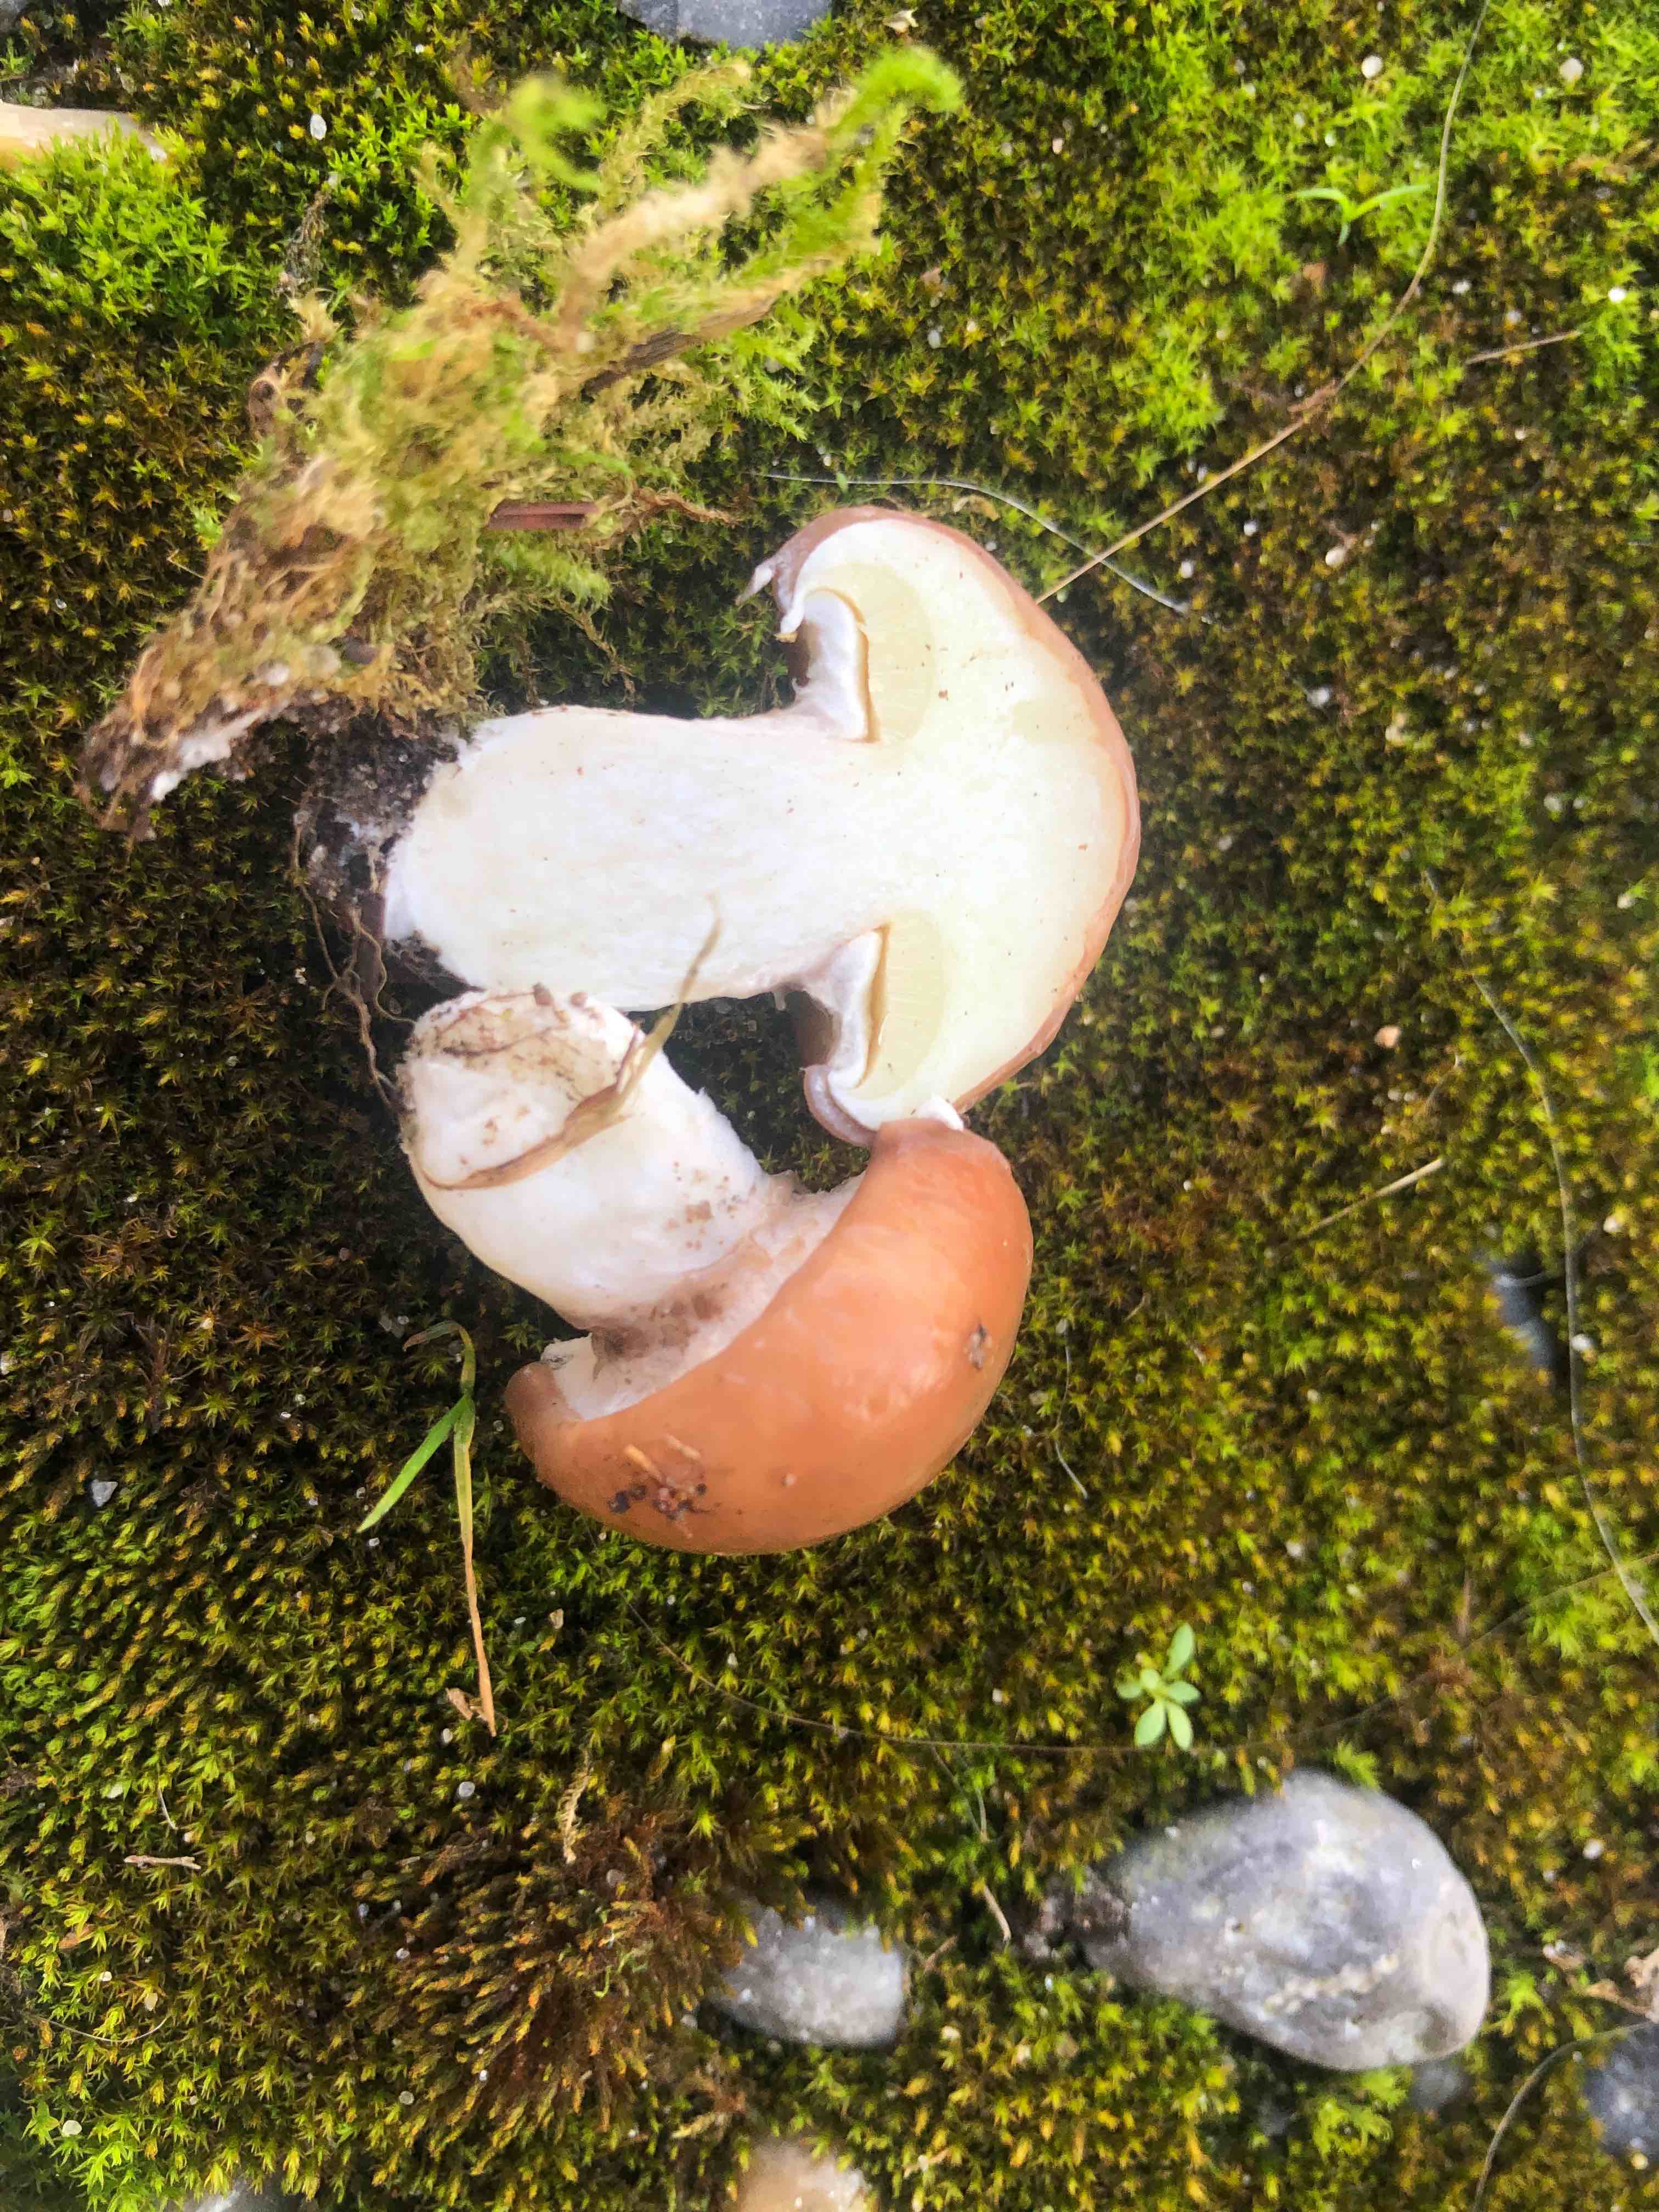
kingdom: Fungi
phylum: Basidiomycota
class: Agaricomycetes
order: Boletales
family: Suillaceae
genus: Suillus
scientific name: Suillus luteus
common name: brungul slimrørhat
